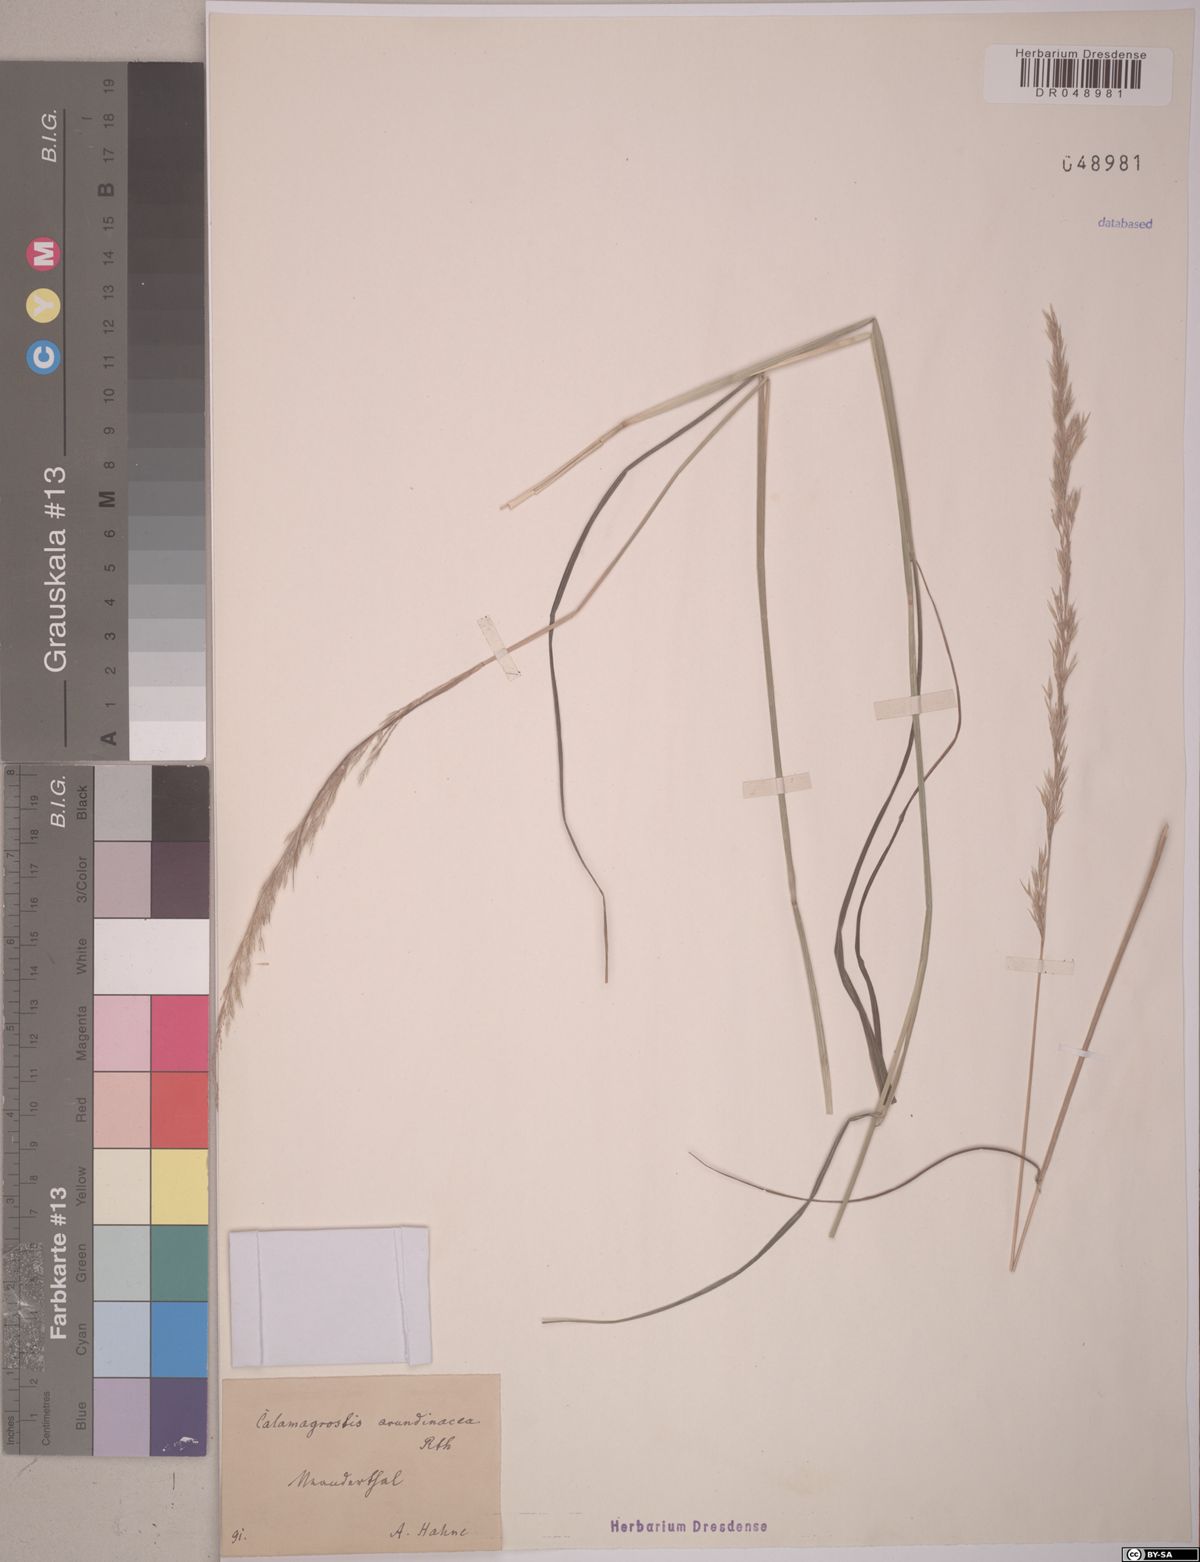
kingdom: Plantae
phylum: Tracheophyta
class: Liliopsida
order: Poales
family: Poaceae
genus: Calamagrostis
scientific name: Calamagrostis arundinacea
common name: Metskastik
